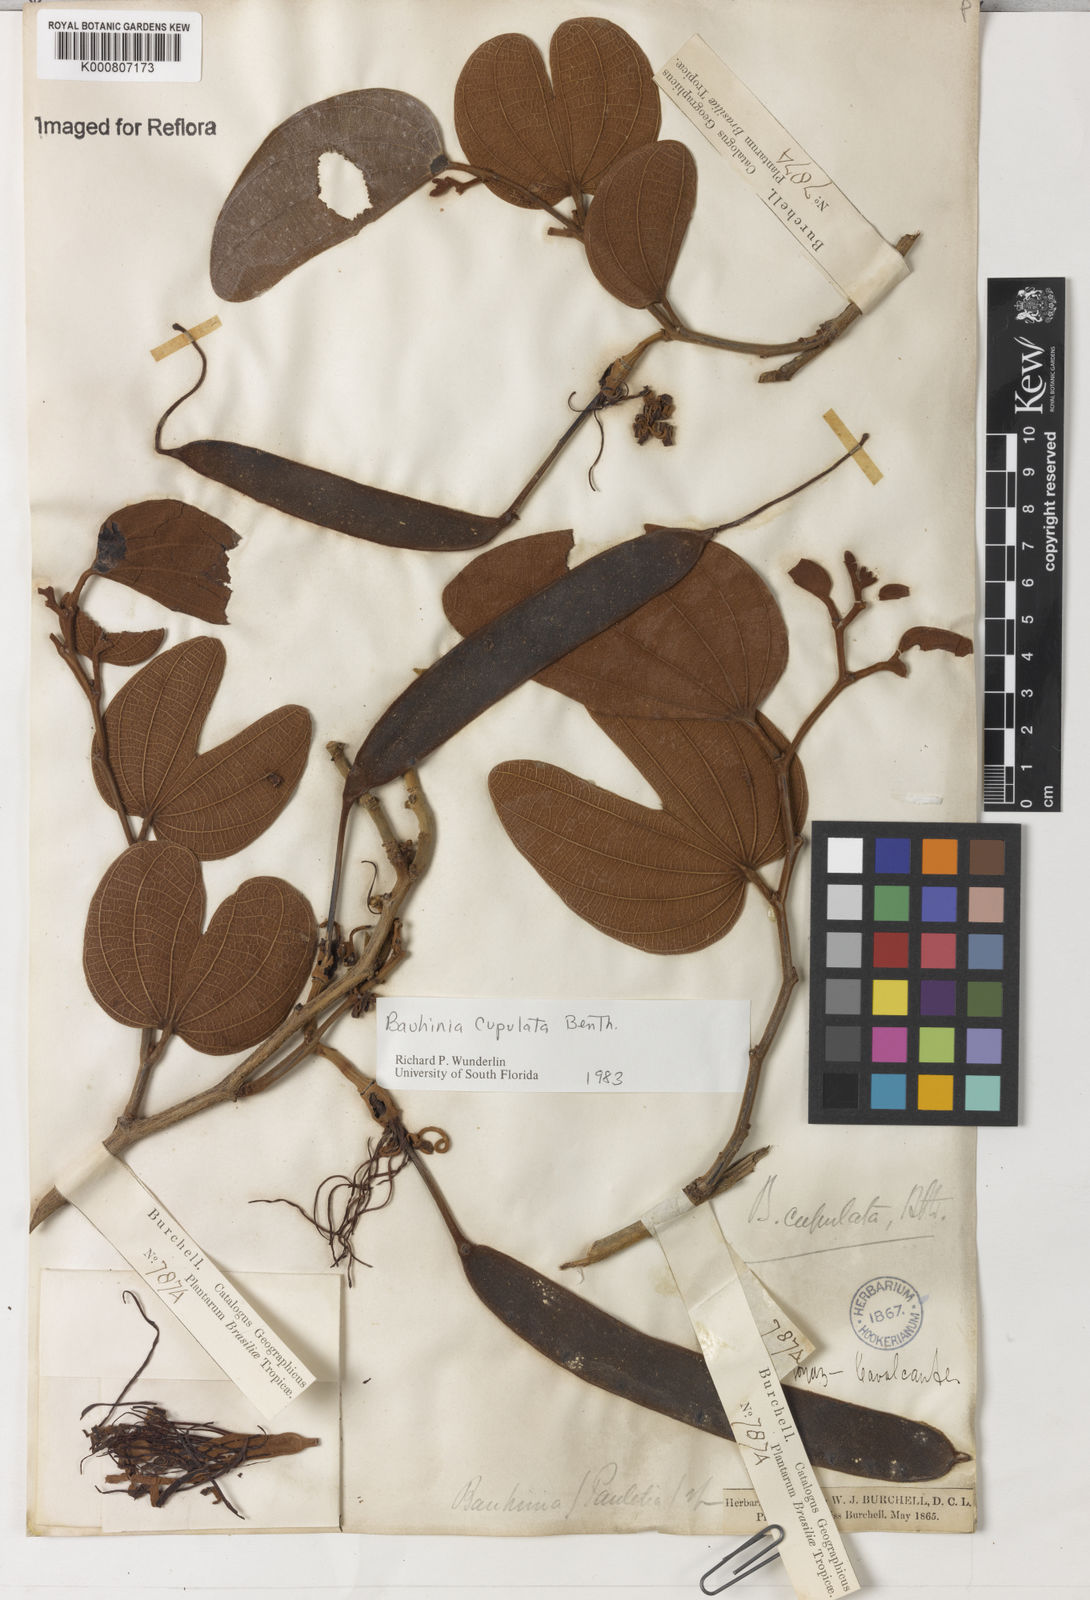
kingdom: Plantae
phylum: Tracheophyta
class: Magnoliopsida
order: Fabales
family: Fabaceae
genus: Bauhinia
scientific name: Bauhinia cupulata
